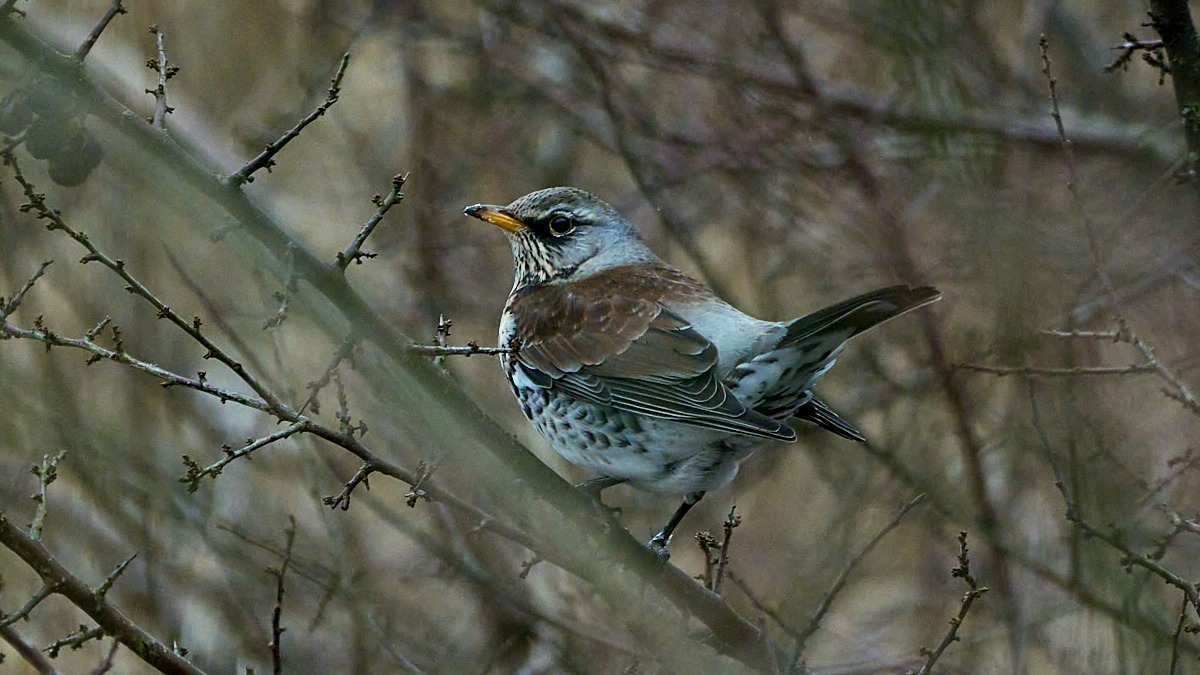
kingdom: Animalia
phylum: Chordata
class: Aves
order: Passeriformes
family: Turdidae
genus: Turdus
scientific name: Turdus pilaris
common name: Sjagger
